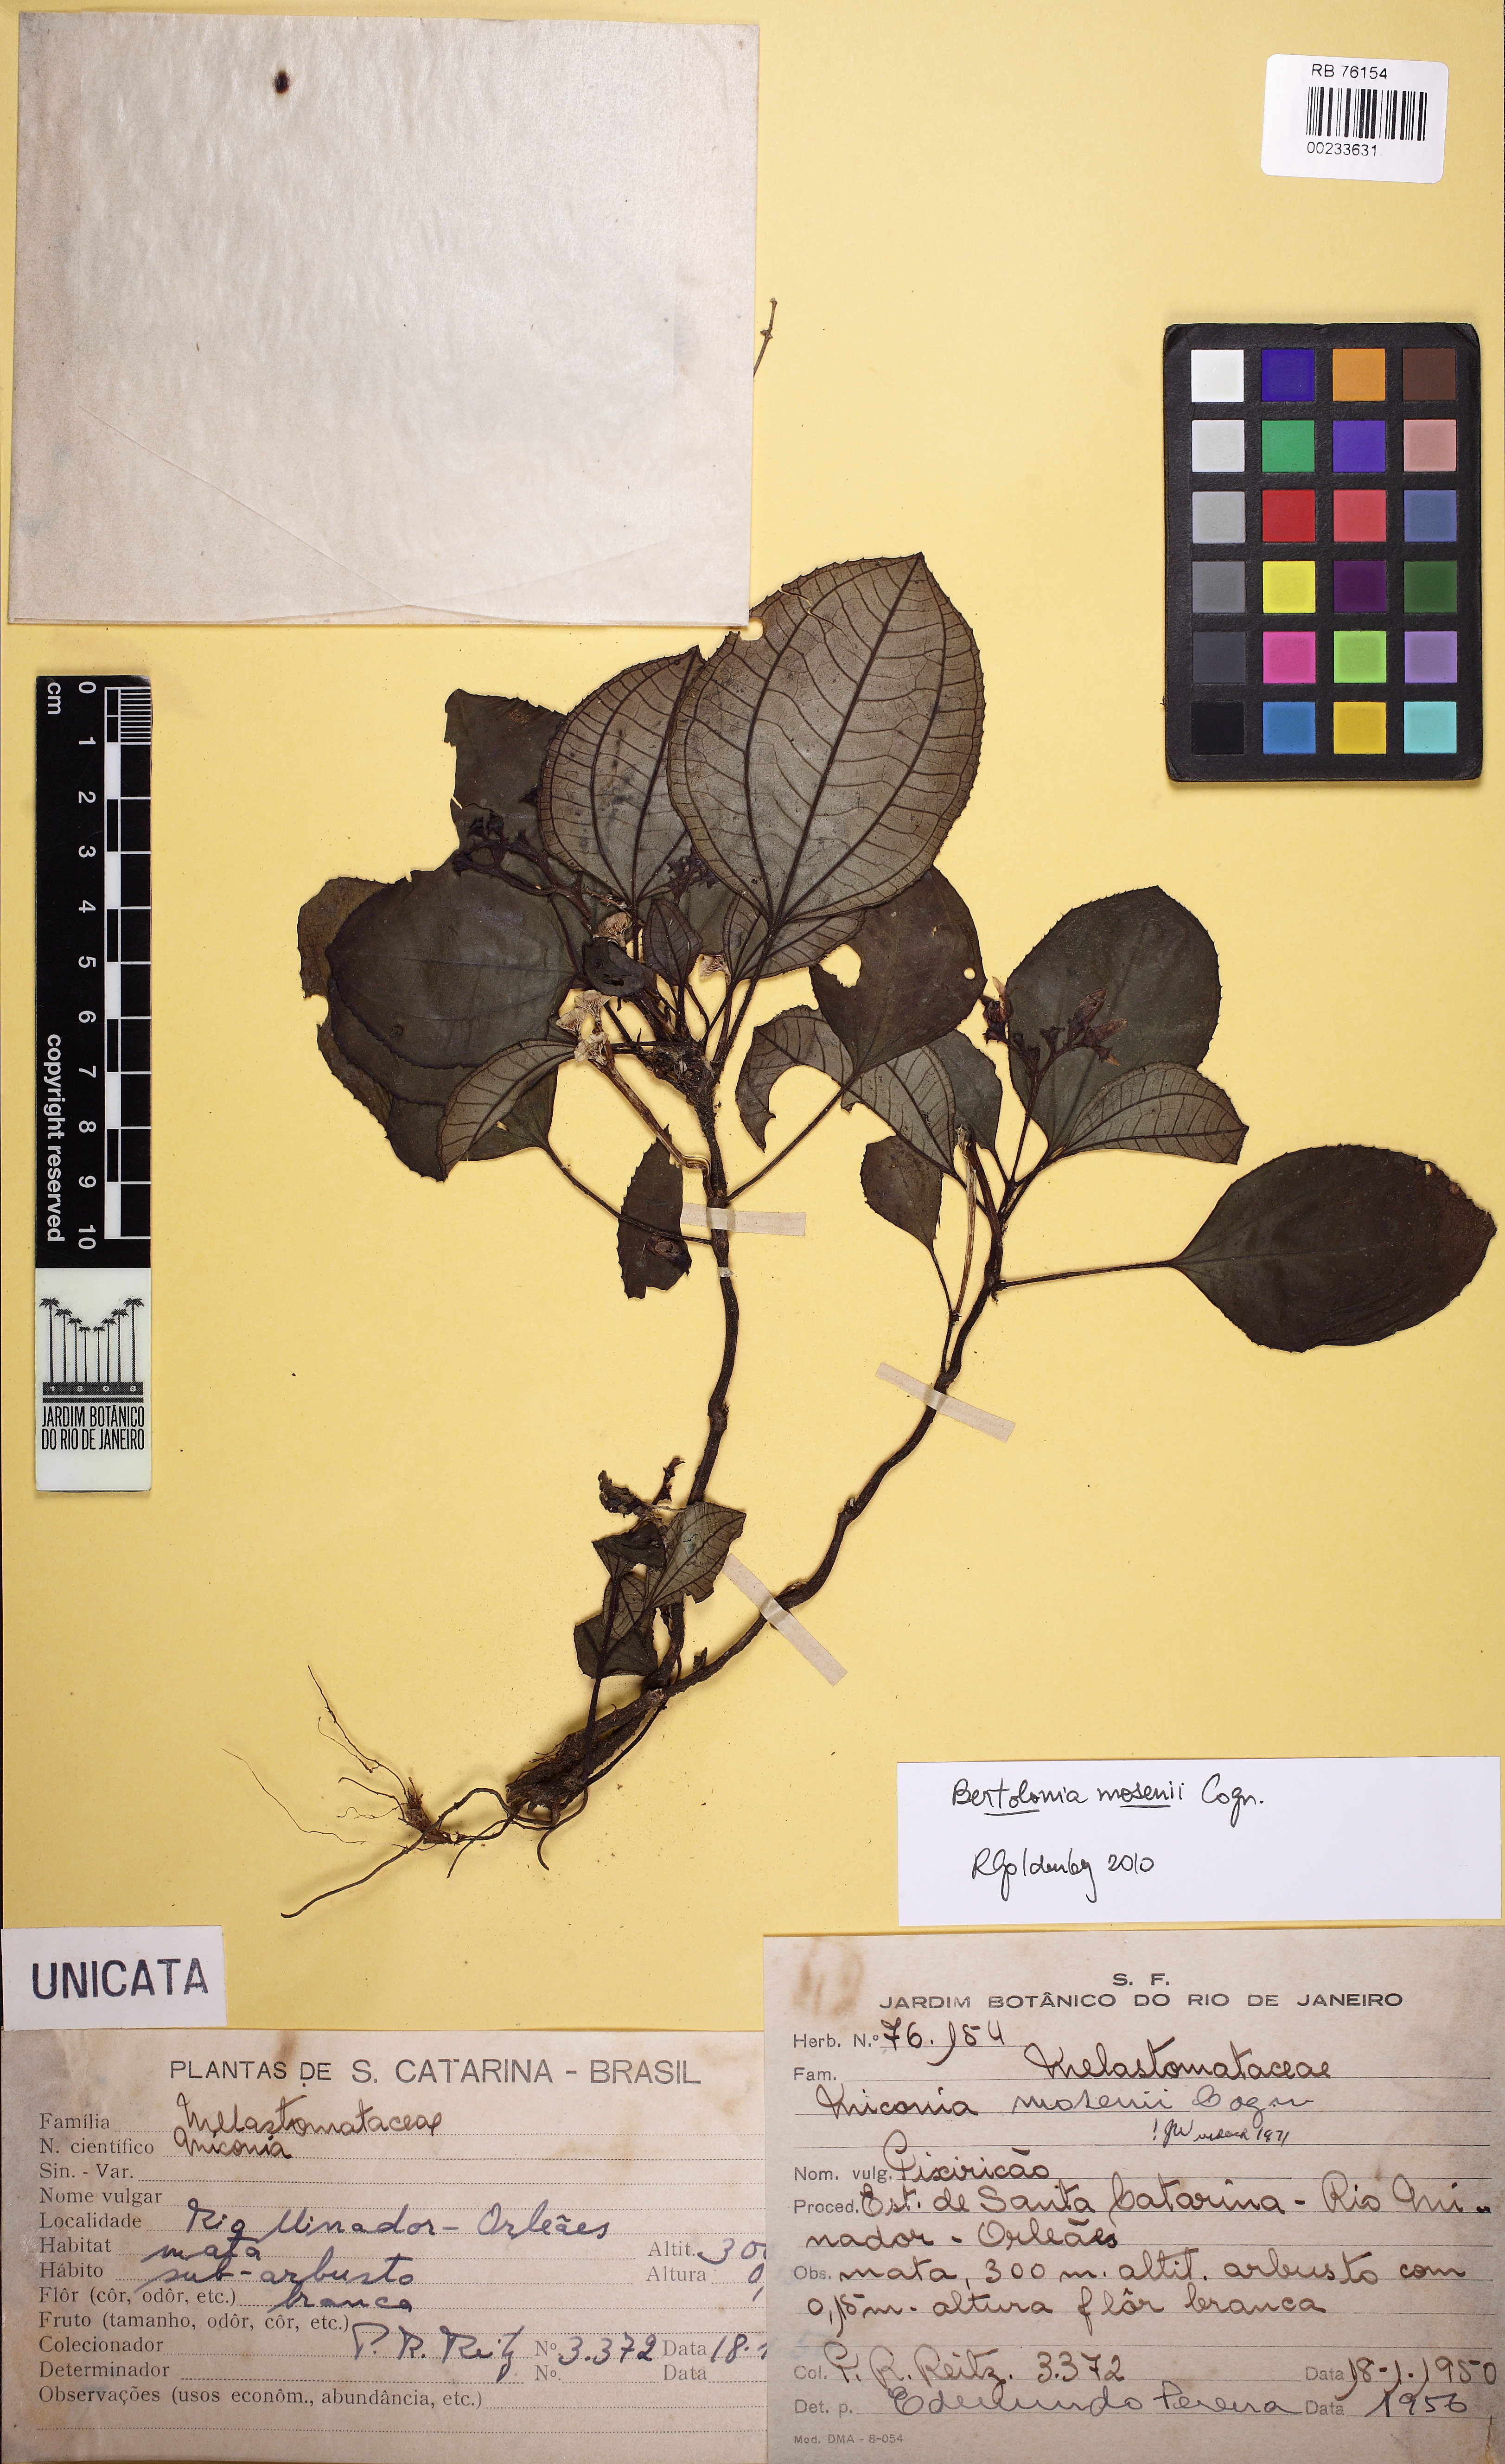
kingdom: Plantae
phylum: Tracheophyta
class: Magnoliopsida
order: Myrtales
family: Melastomataceae
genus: Bertolonia
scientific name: Bertolonia mosenii
